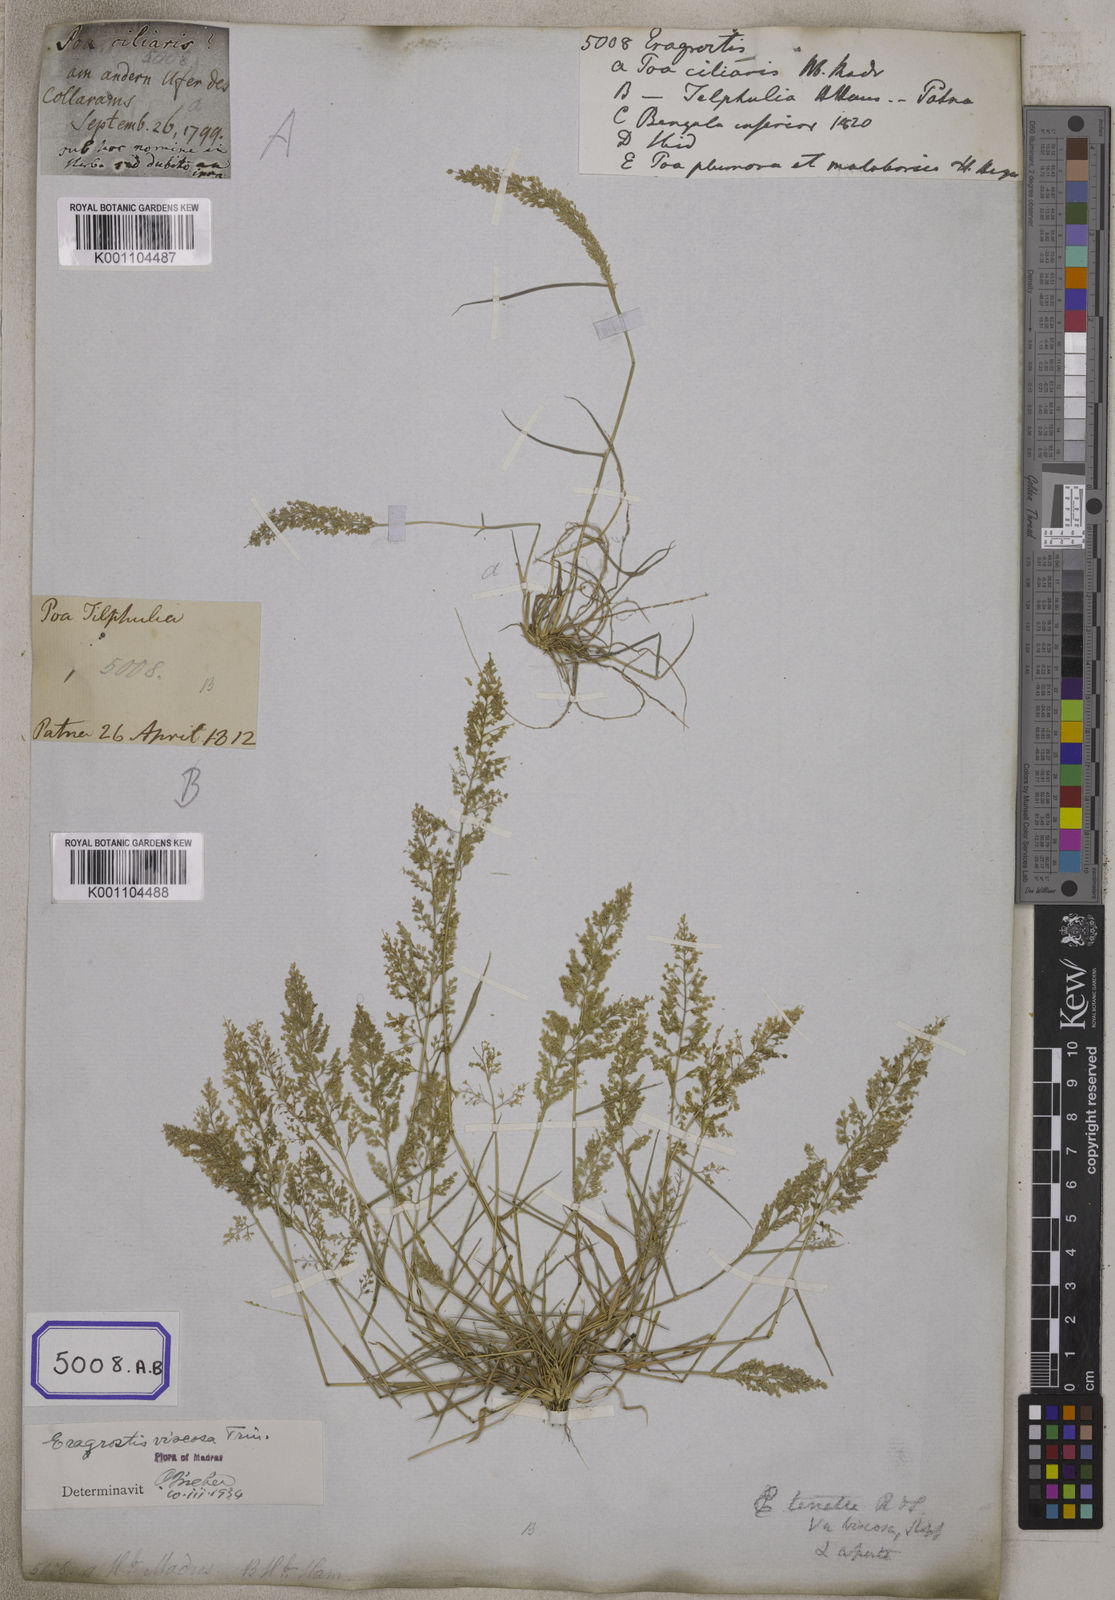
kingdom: Plantae
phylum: Tracheophyta
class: Liliopsida
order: Poales
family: Poaceae
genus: Eragrostis
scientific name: Eragrostis
